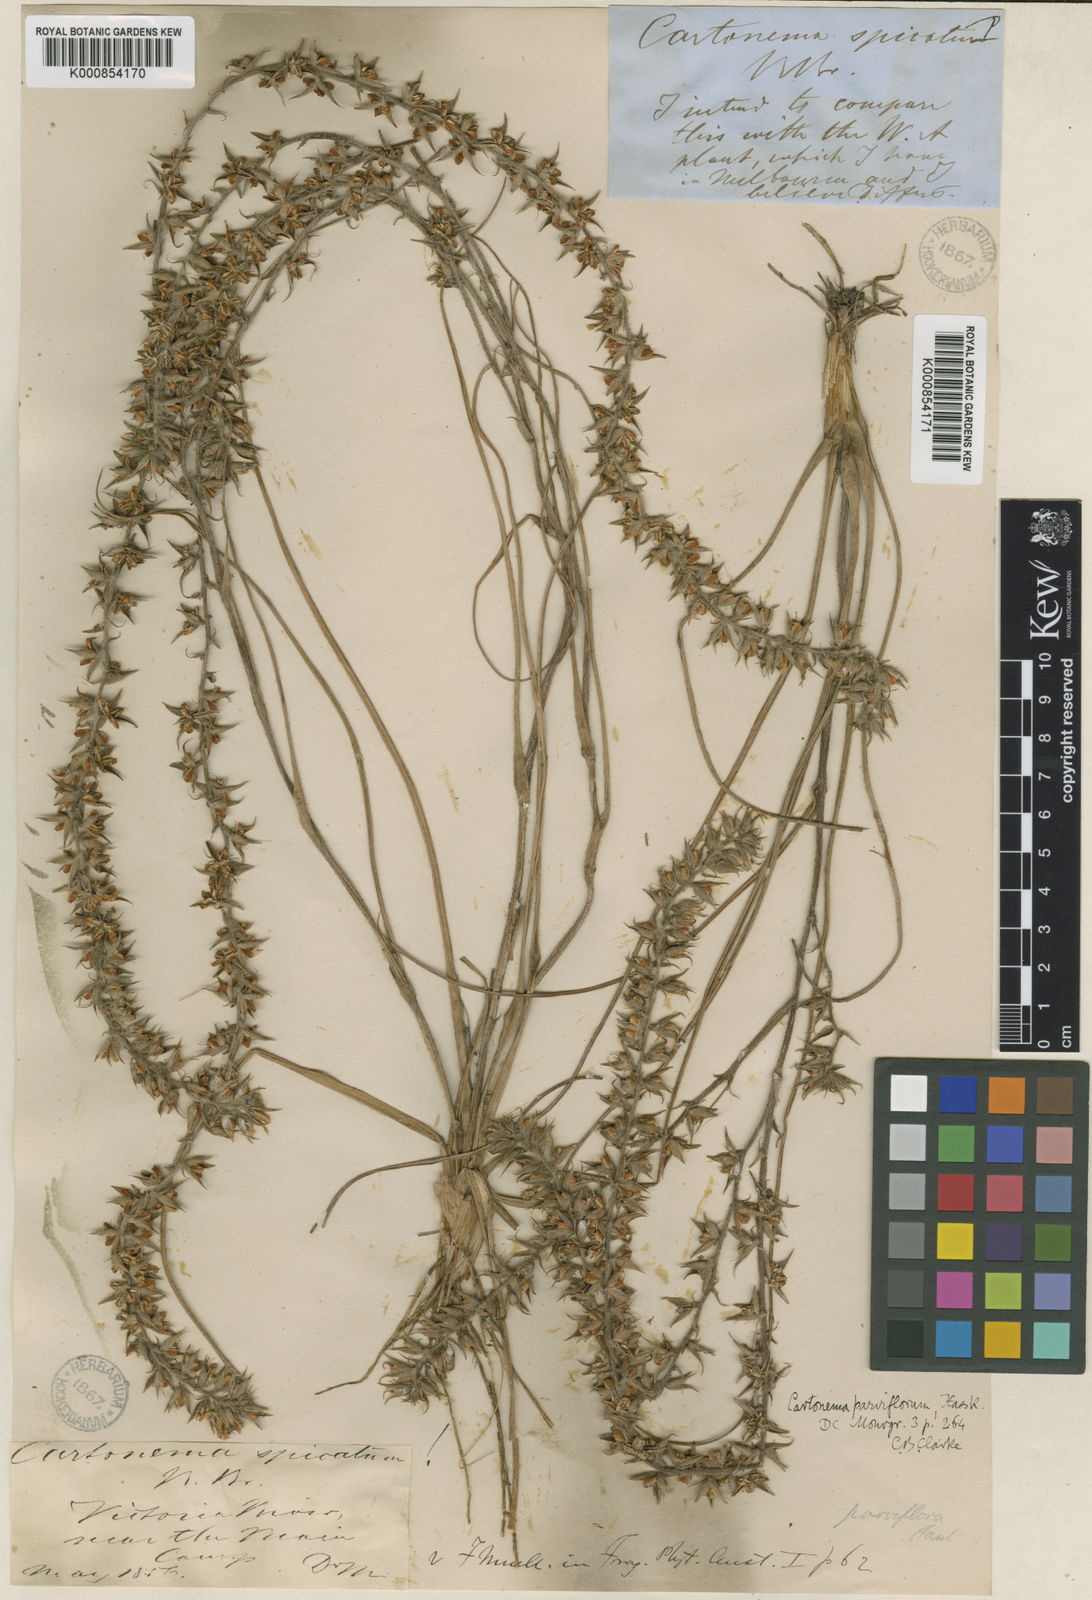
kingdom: Plantae
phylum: Tracheophyta
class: Liliopsida
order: Commelinales
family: Commelinaceae
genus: Cartonema
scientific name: Cartonema parviflorum
